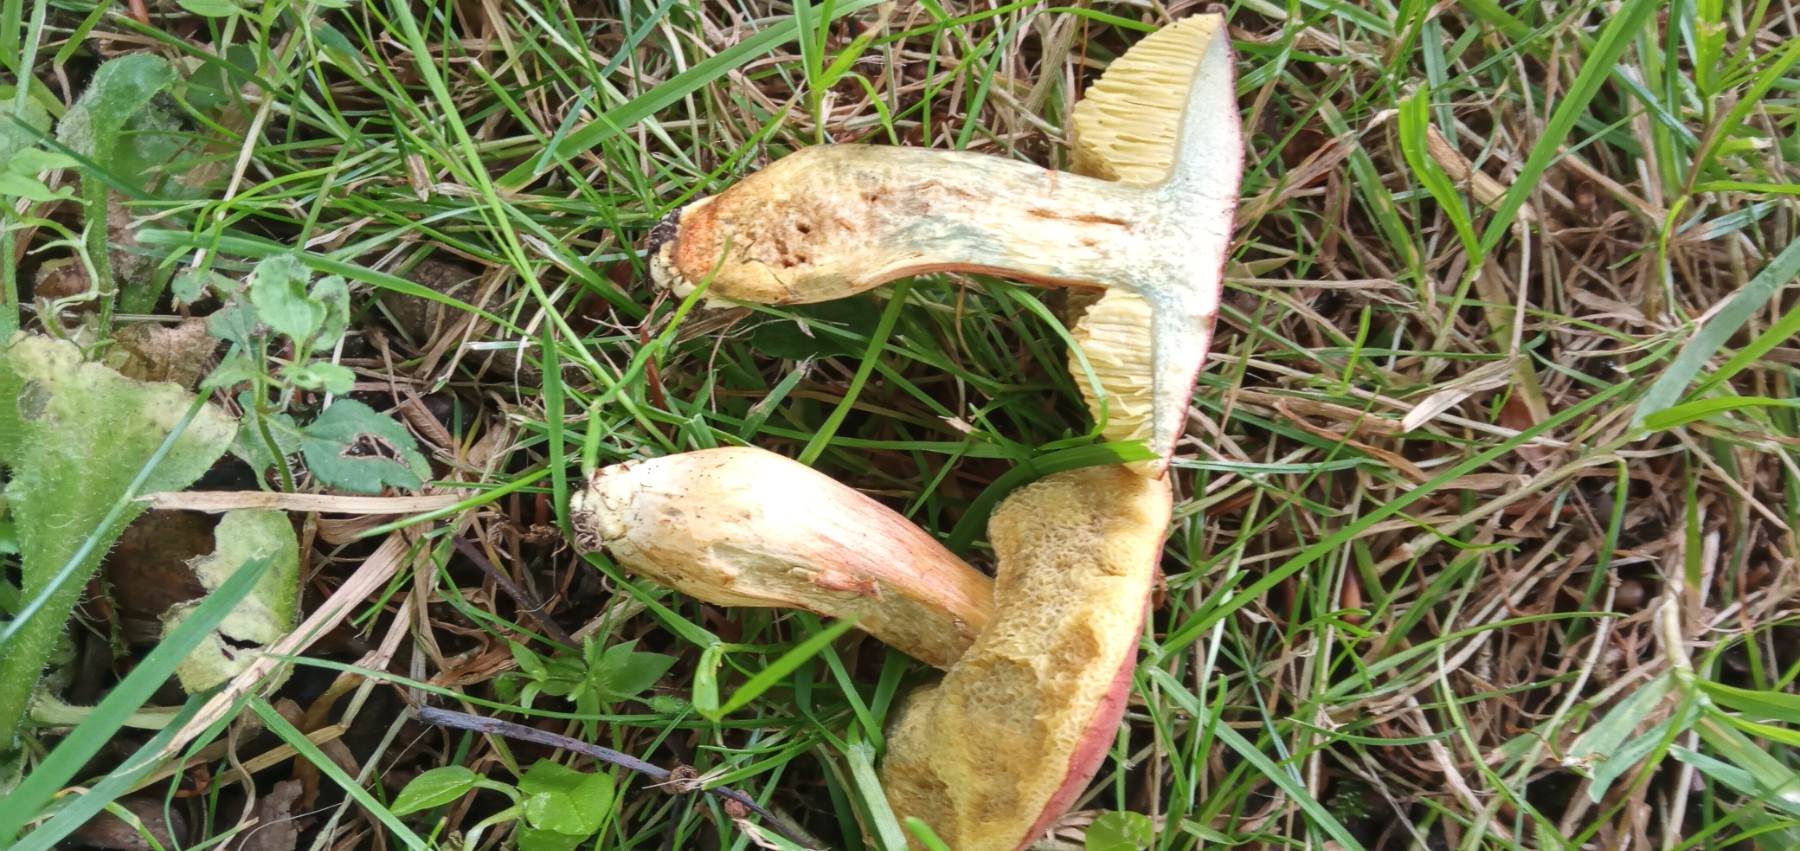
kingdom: Fungi
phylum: Basidiomycota
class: Agaricomycetes
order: Boletales
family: Boletaceae
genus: Hortiboletus
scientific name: Hortiboletus bubalinus
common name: aurora-rørhat
